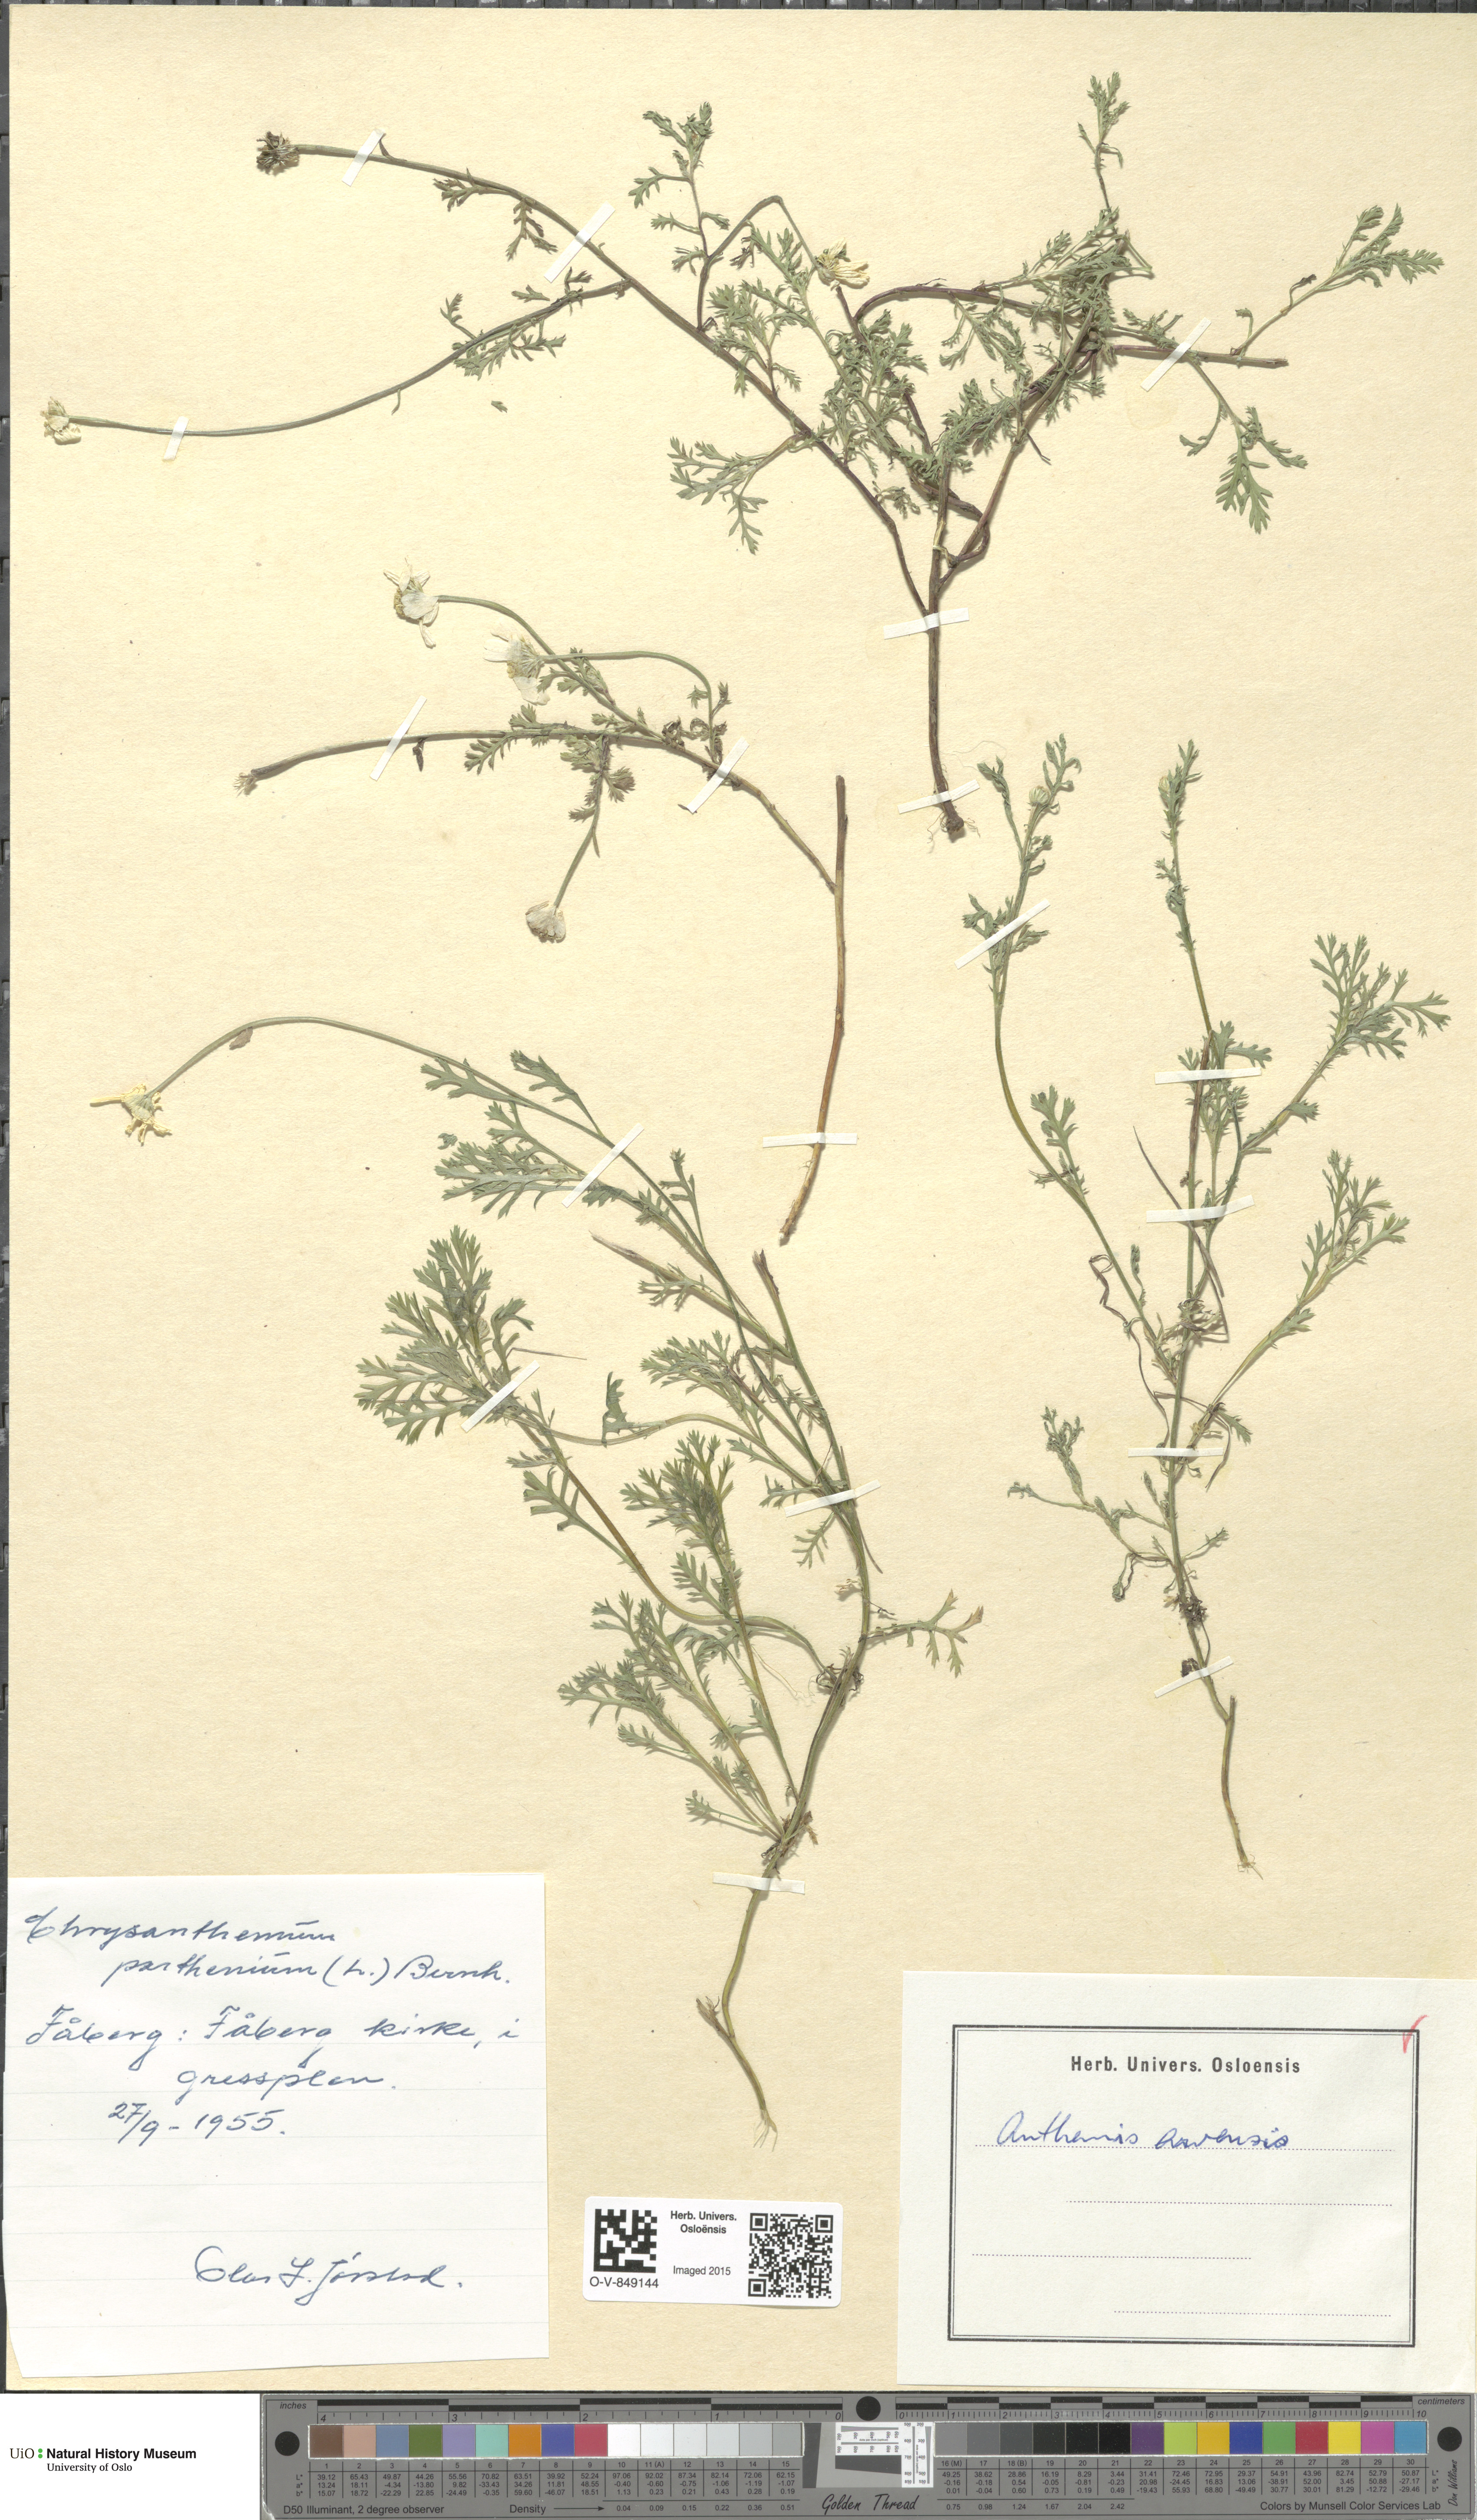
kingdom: Plantae
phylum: Tracheophyta
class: Magnoliopsida
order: Asterales
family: Asteraceae
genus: Anthemis
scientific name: Anthemis arvensis
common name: Corn chamomile
